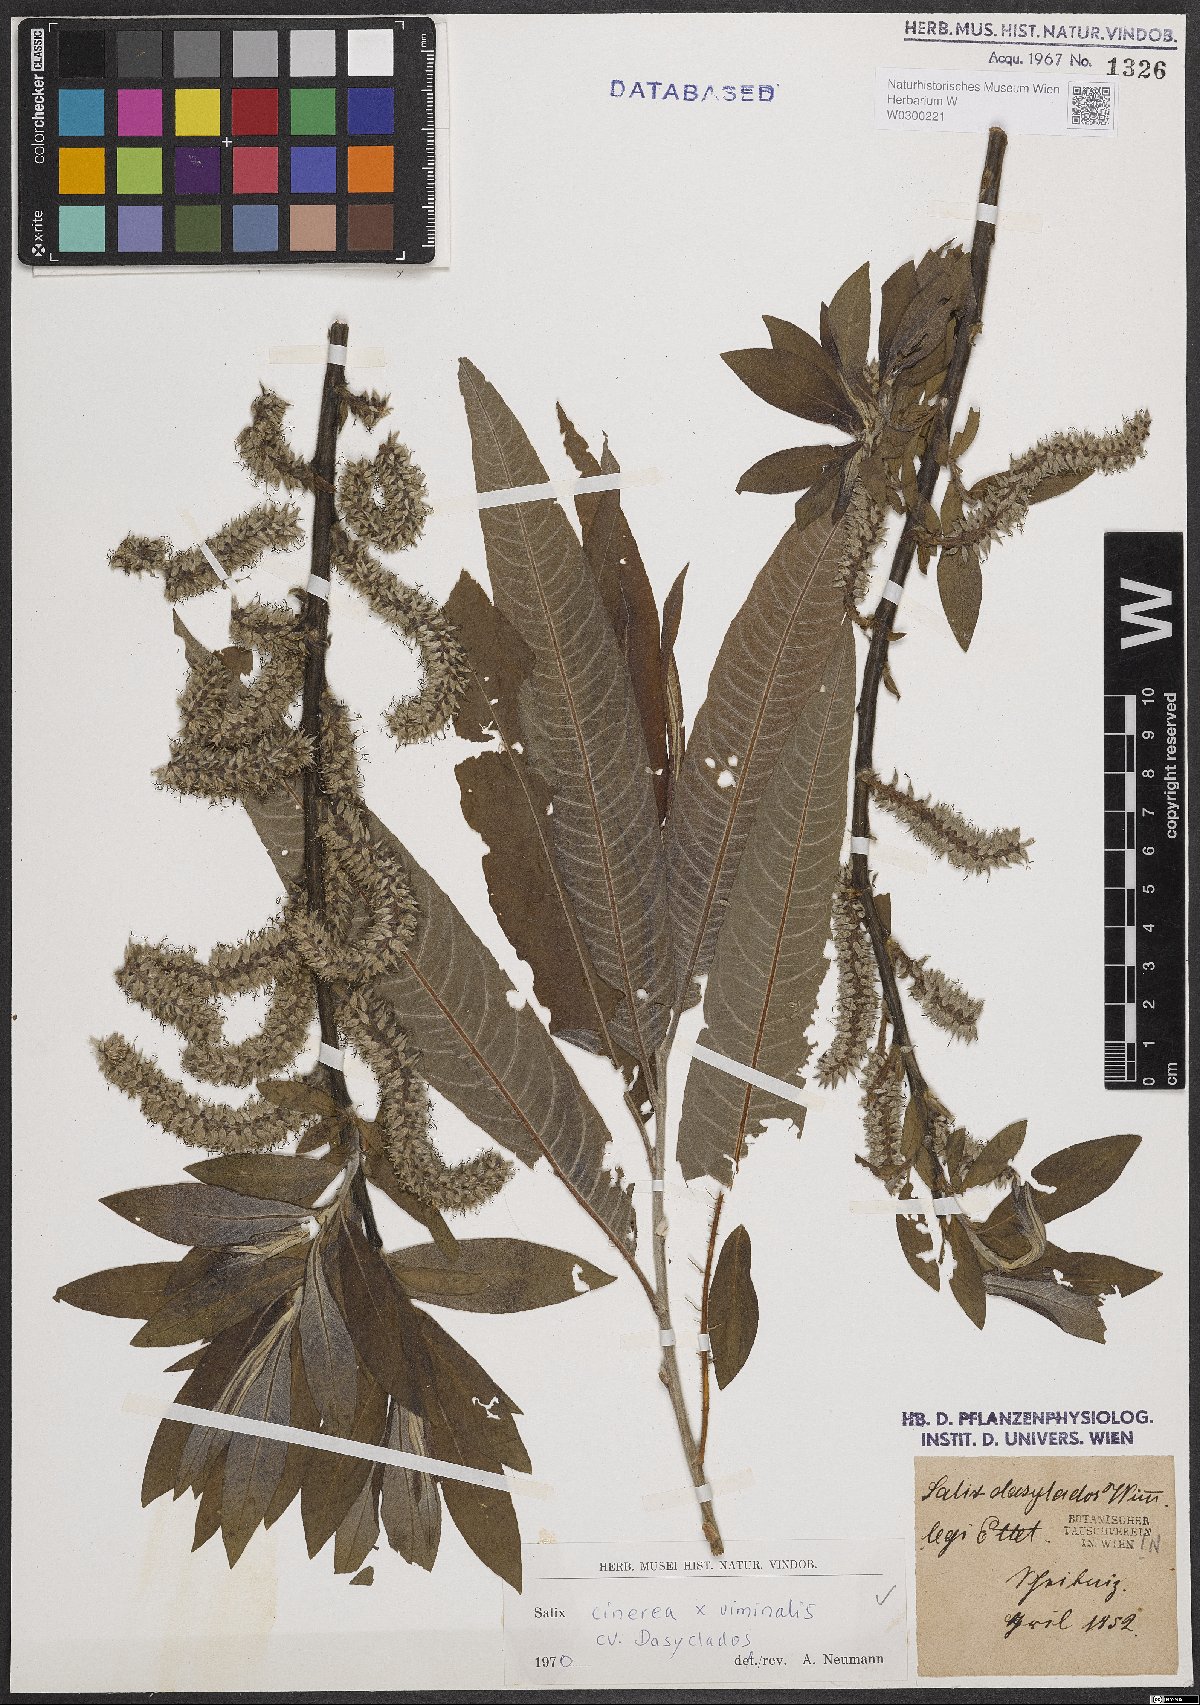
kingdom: Plantae
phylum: Tracheophyta
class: Magnoliopsida
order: Malpighiales
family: Salicaceae
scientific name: Salicaceae
